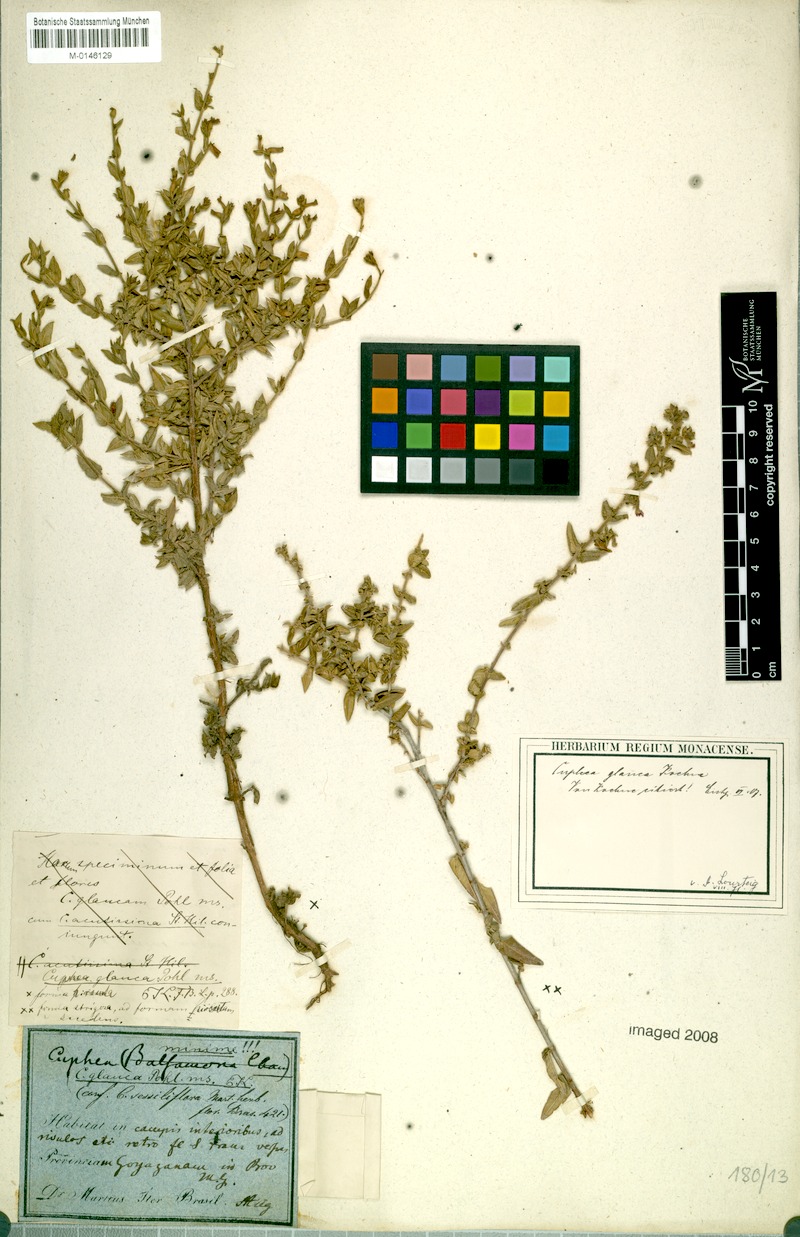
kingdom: Plantae
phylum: Tracheophyta
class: Magnoliopsida
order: Myrtales
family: Lythraceae
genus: Cuphea
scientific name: Cuphea glauca
